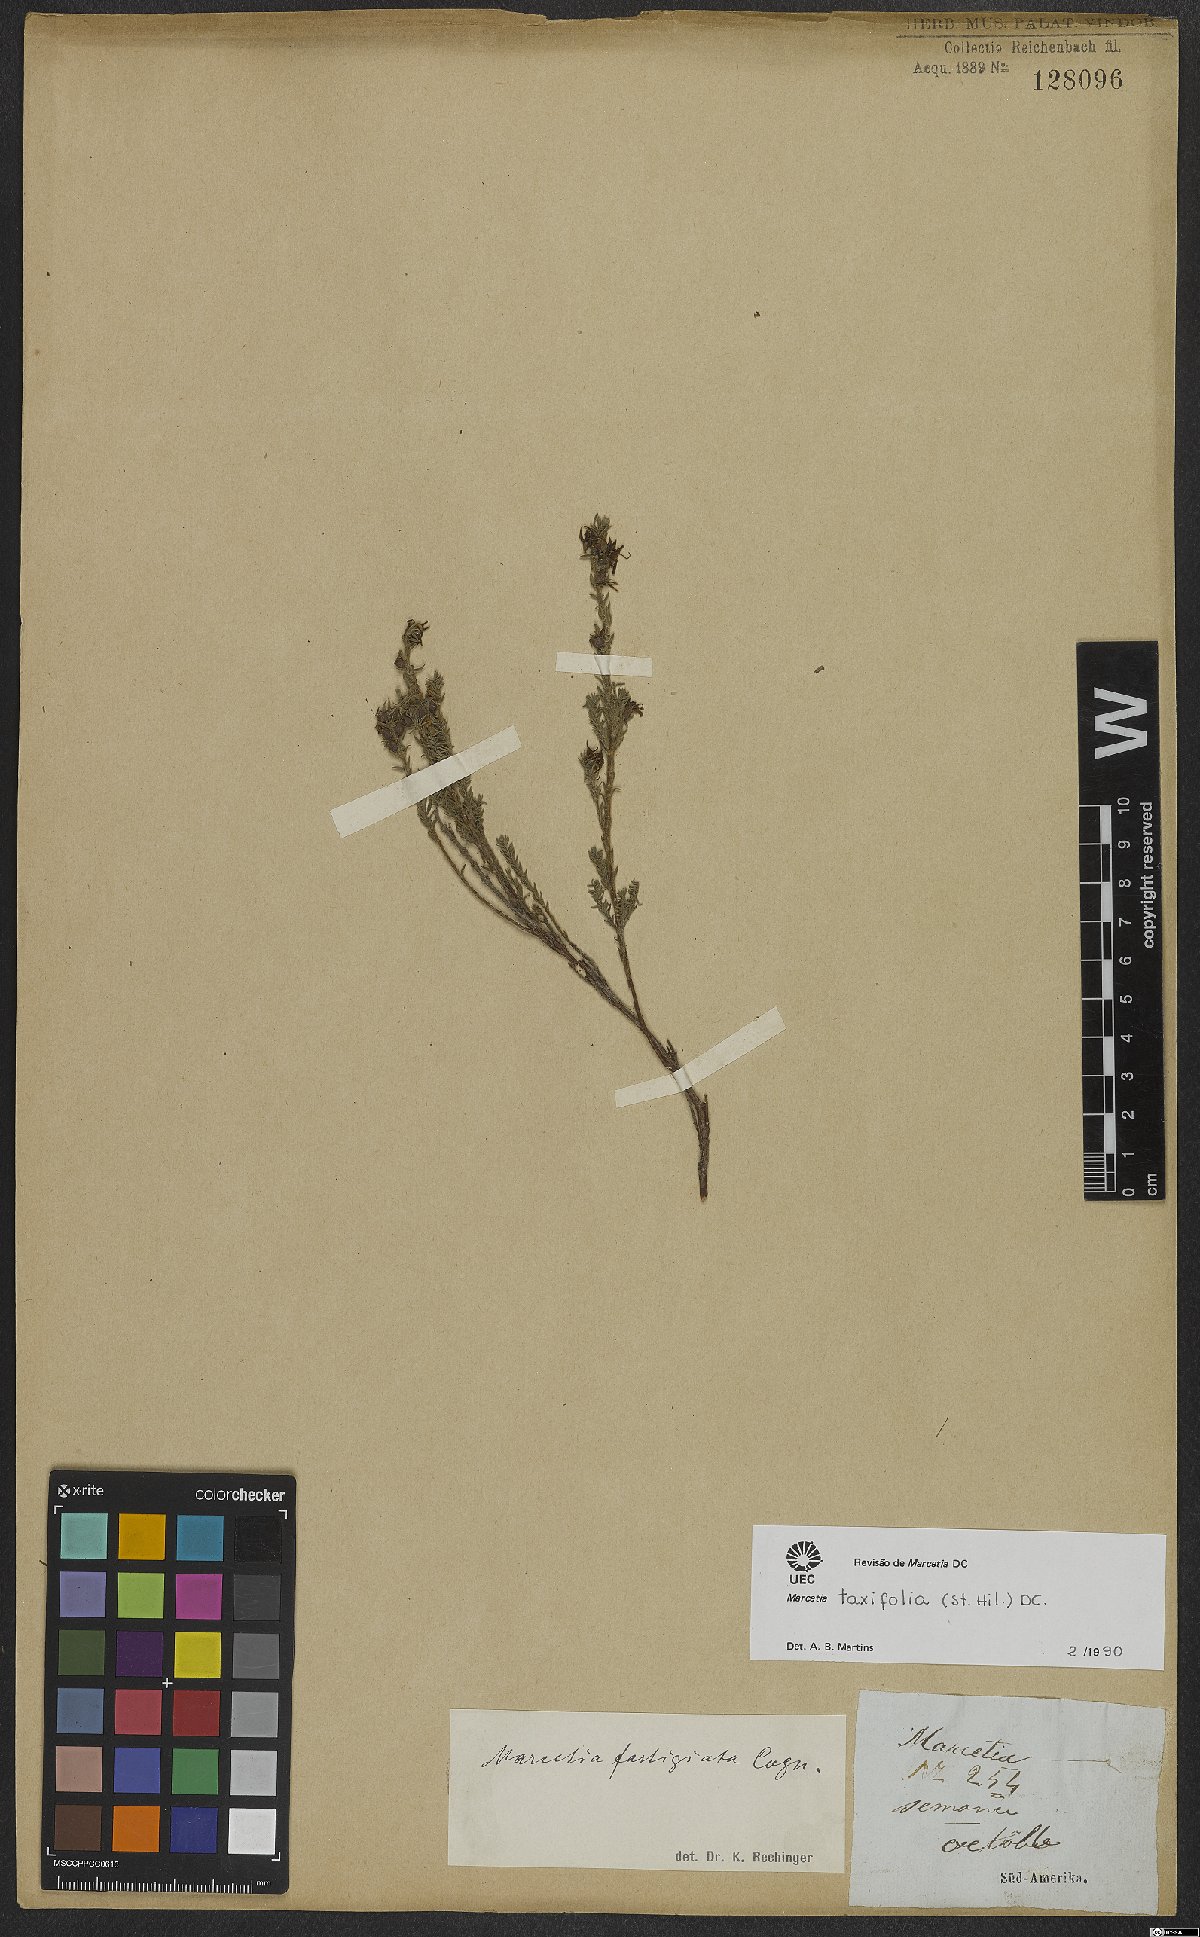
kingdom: Plantae
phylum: Tracheophyta
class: Magnoliopsida
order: Myrtales
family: Melastomataceae
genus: Marcetia
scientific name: Marcetia taxifolia
